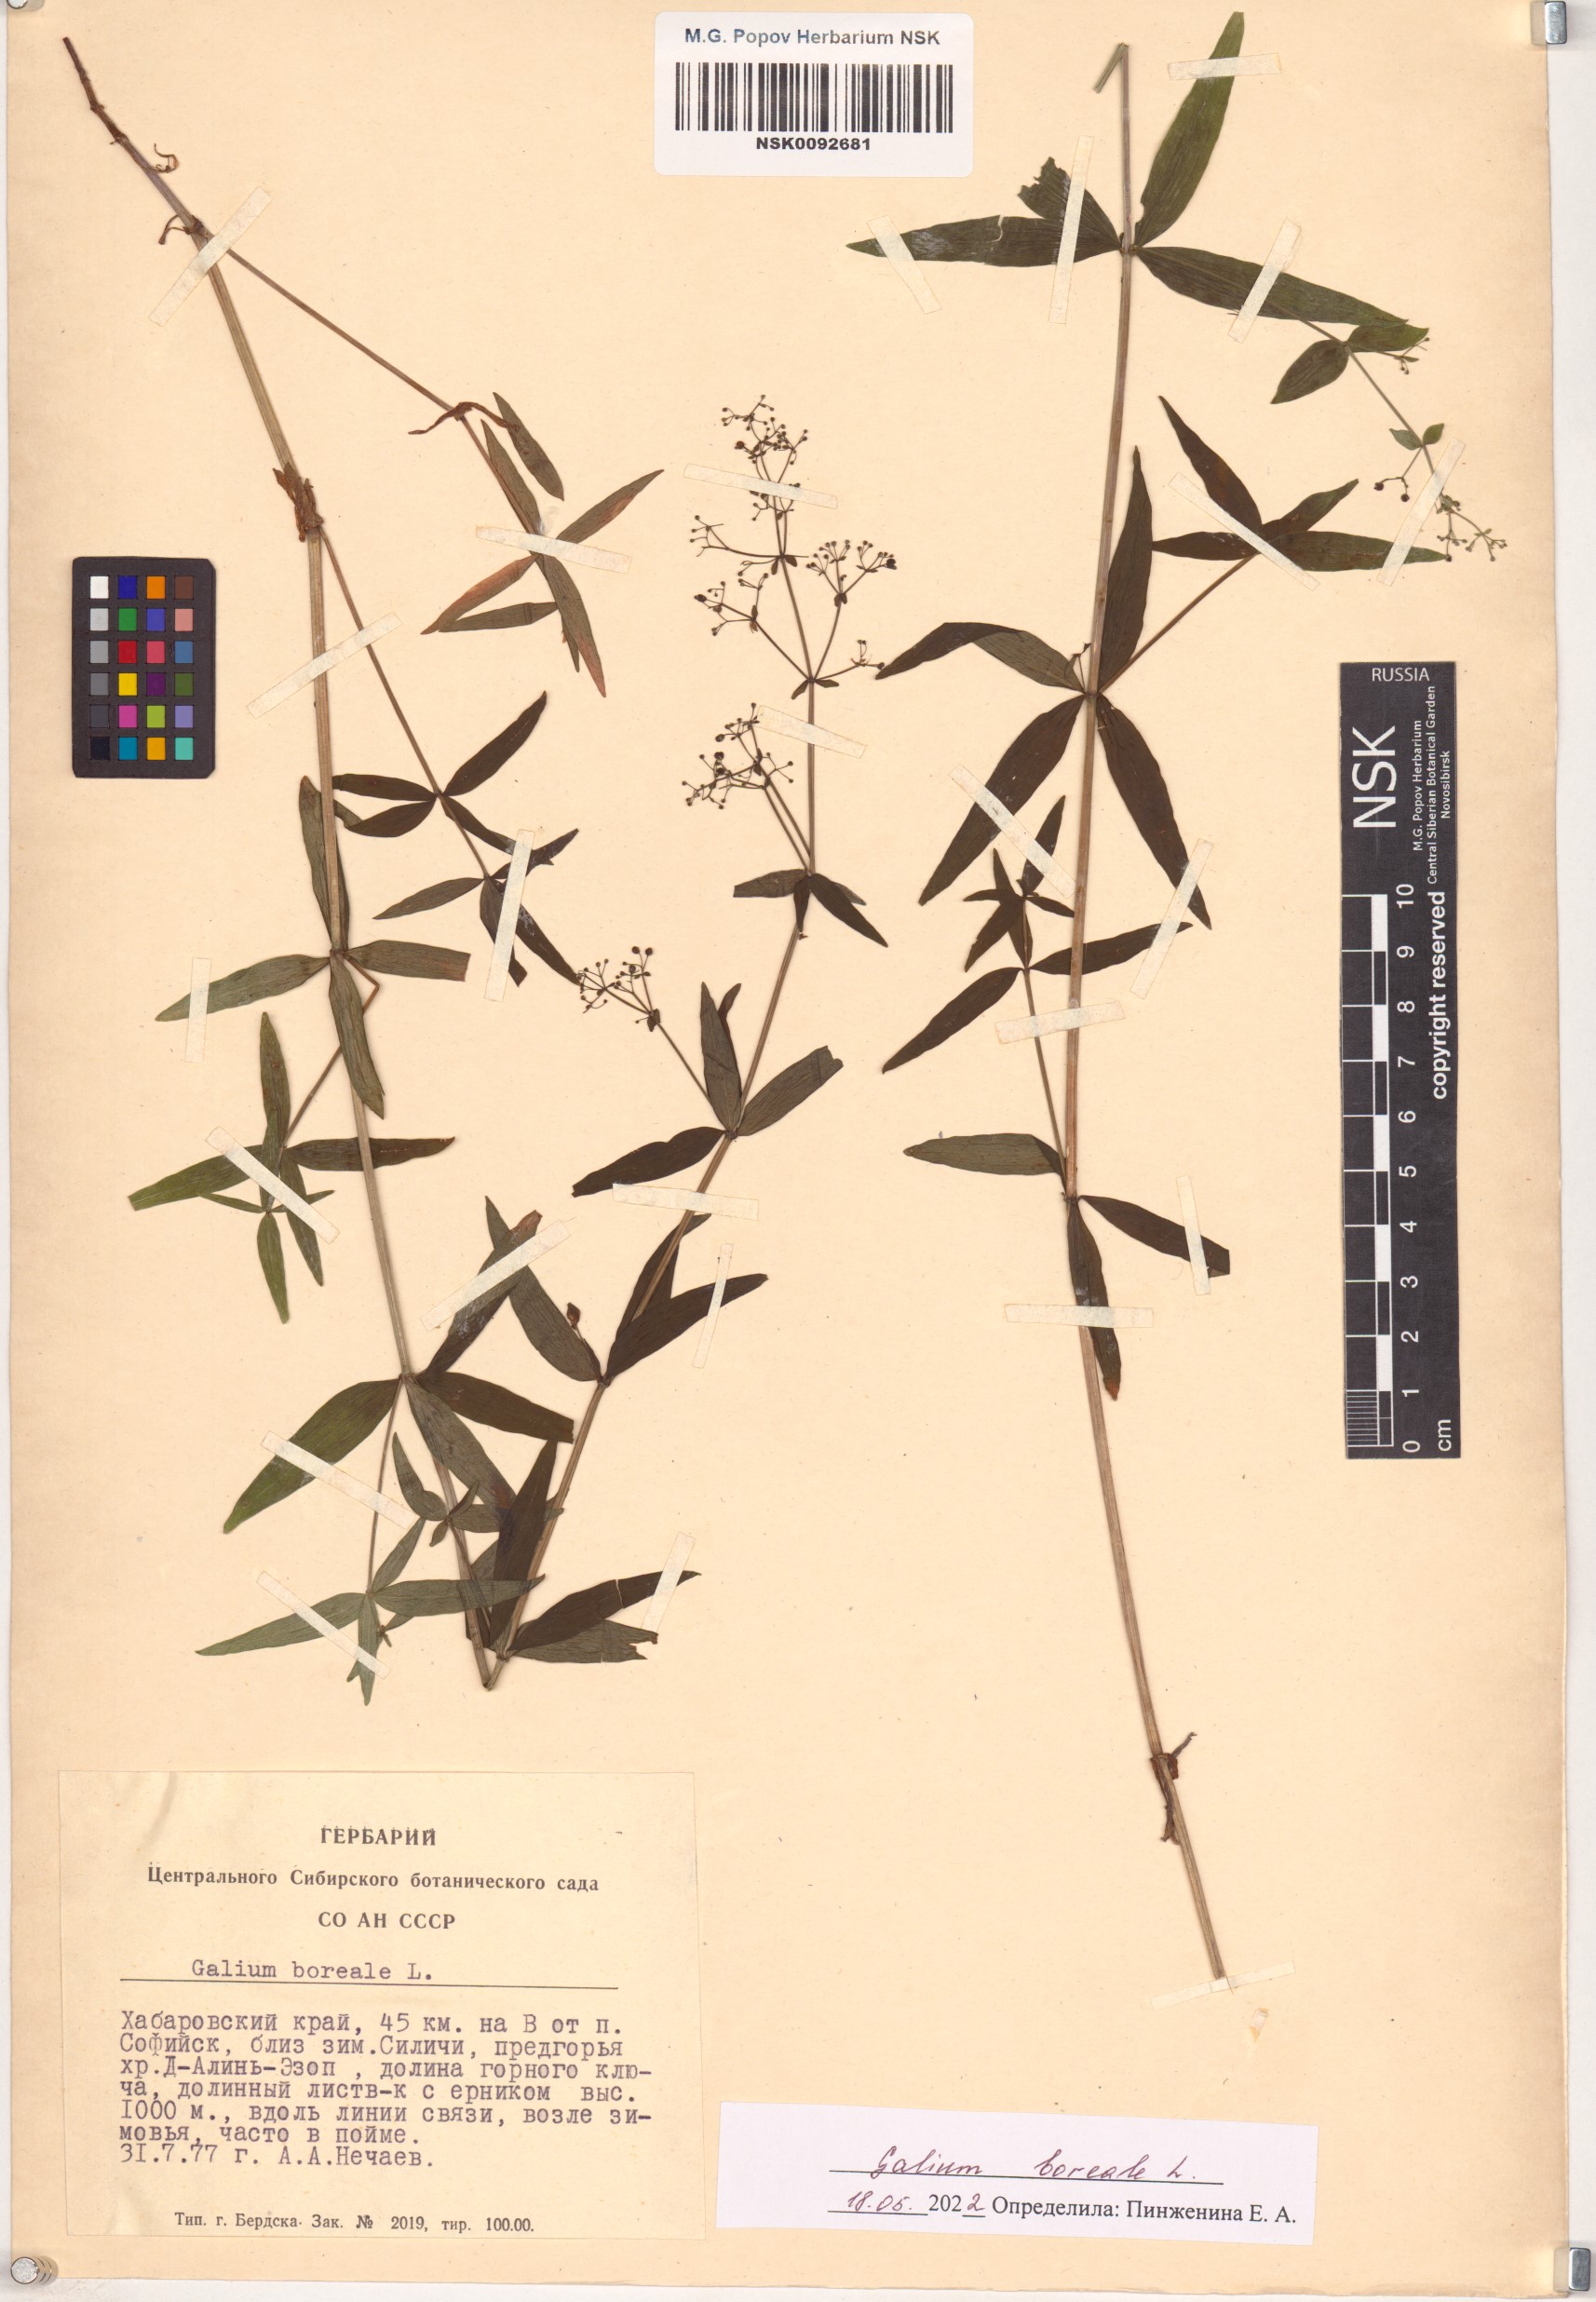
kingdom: Plantae
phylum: Tracheophyta
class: Magnoliopsida
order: Gentianales
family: Rubiaceae
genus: Galium
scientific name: Galium boreale
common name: Northern bedstraw
